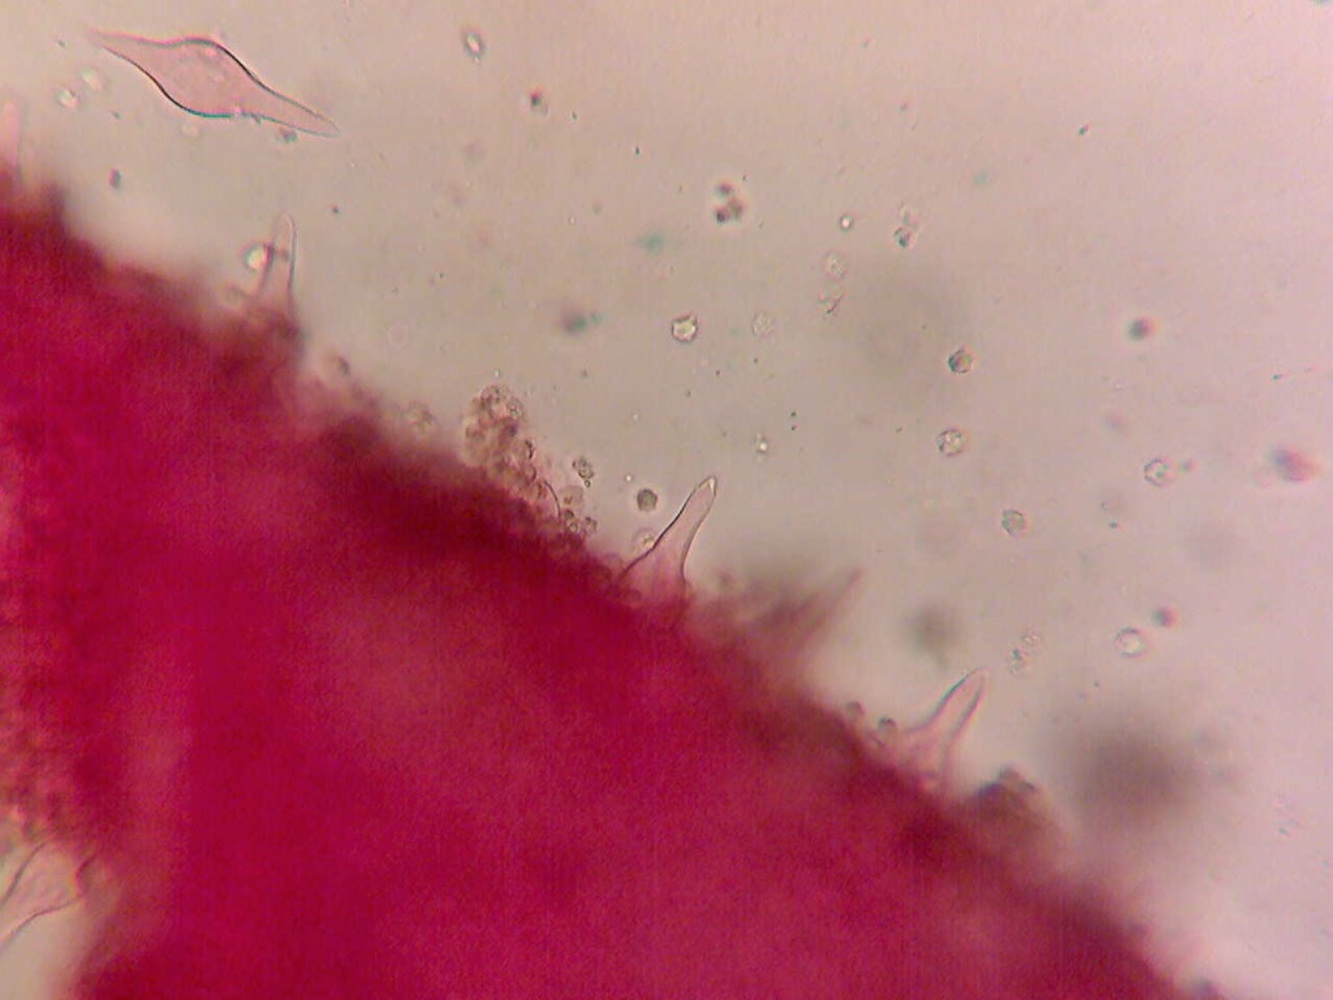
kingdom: Fungi
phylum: Basidiomycota
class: Agaricomycetes
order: Agaricales
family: Tricholomataceae
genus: Mycenella
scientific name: Mycenella trachyspora
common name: rødprikket dughat
